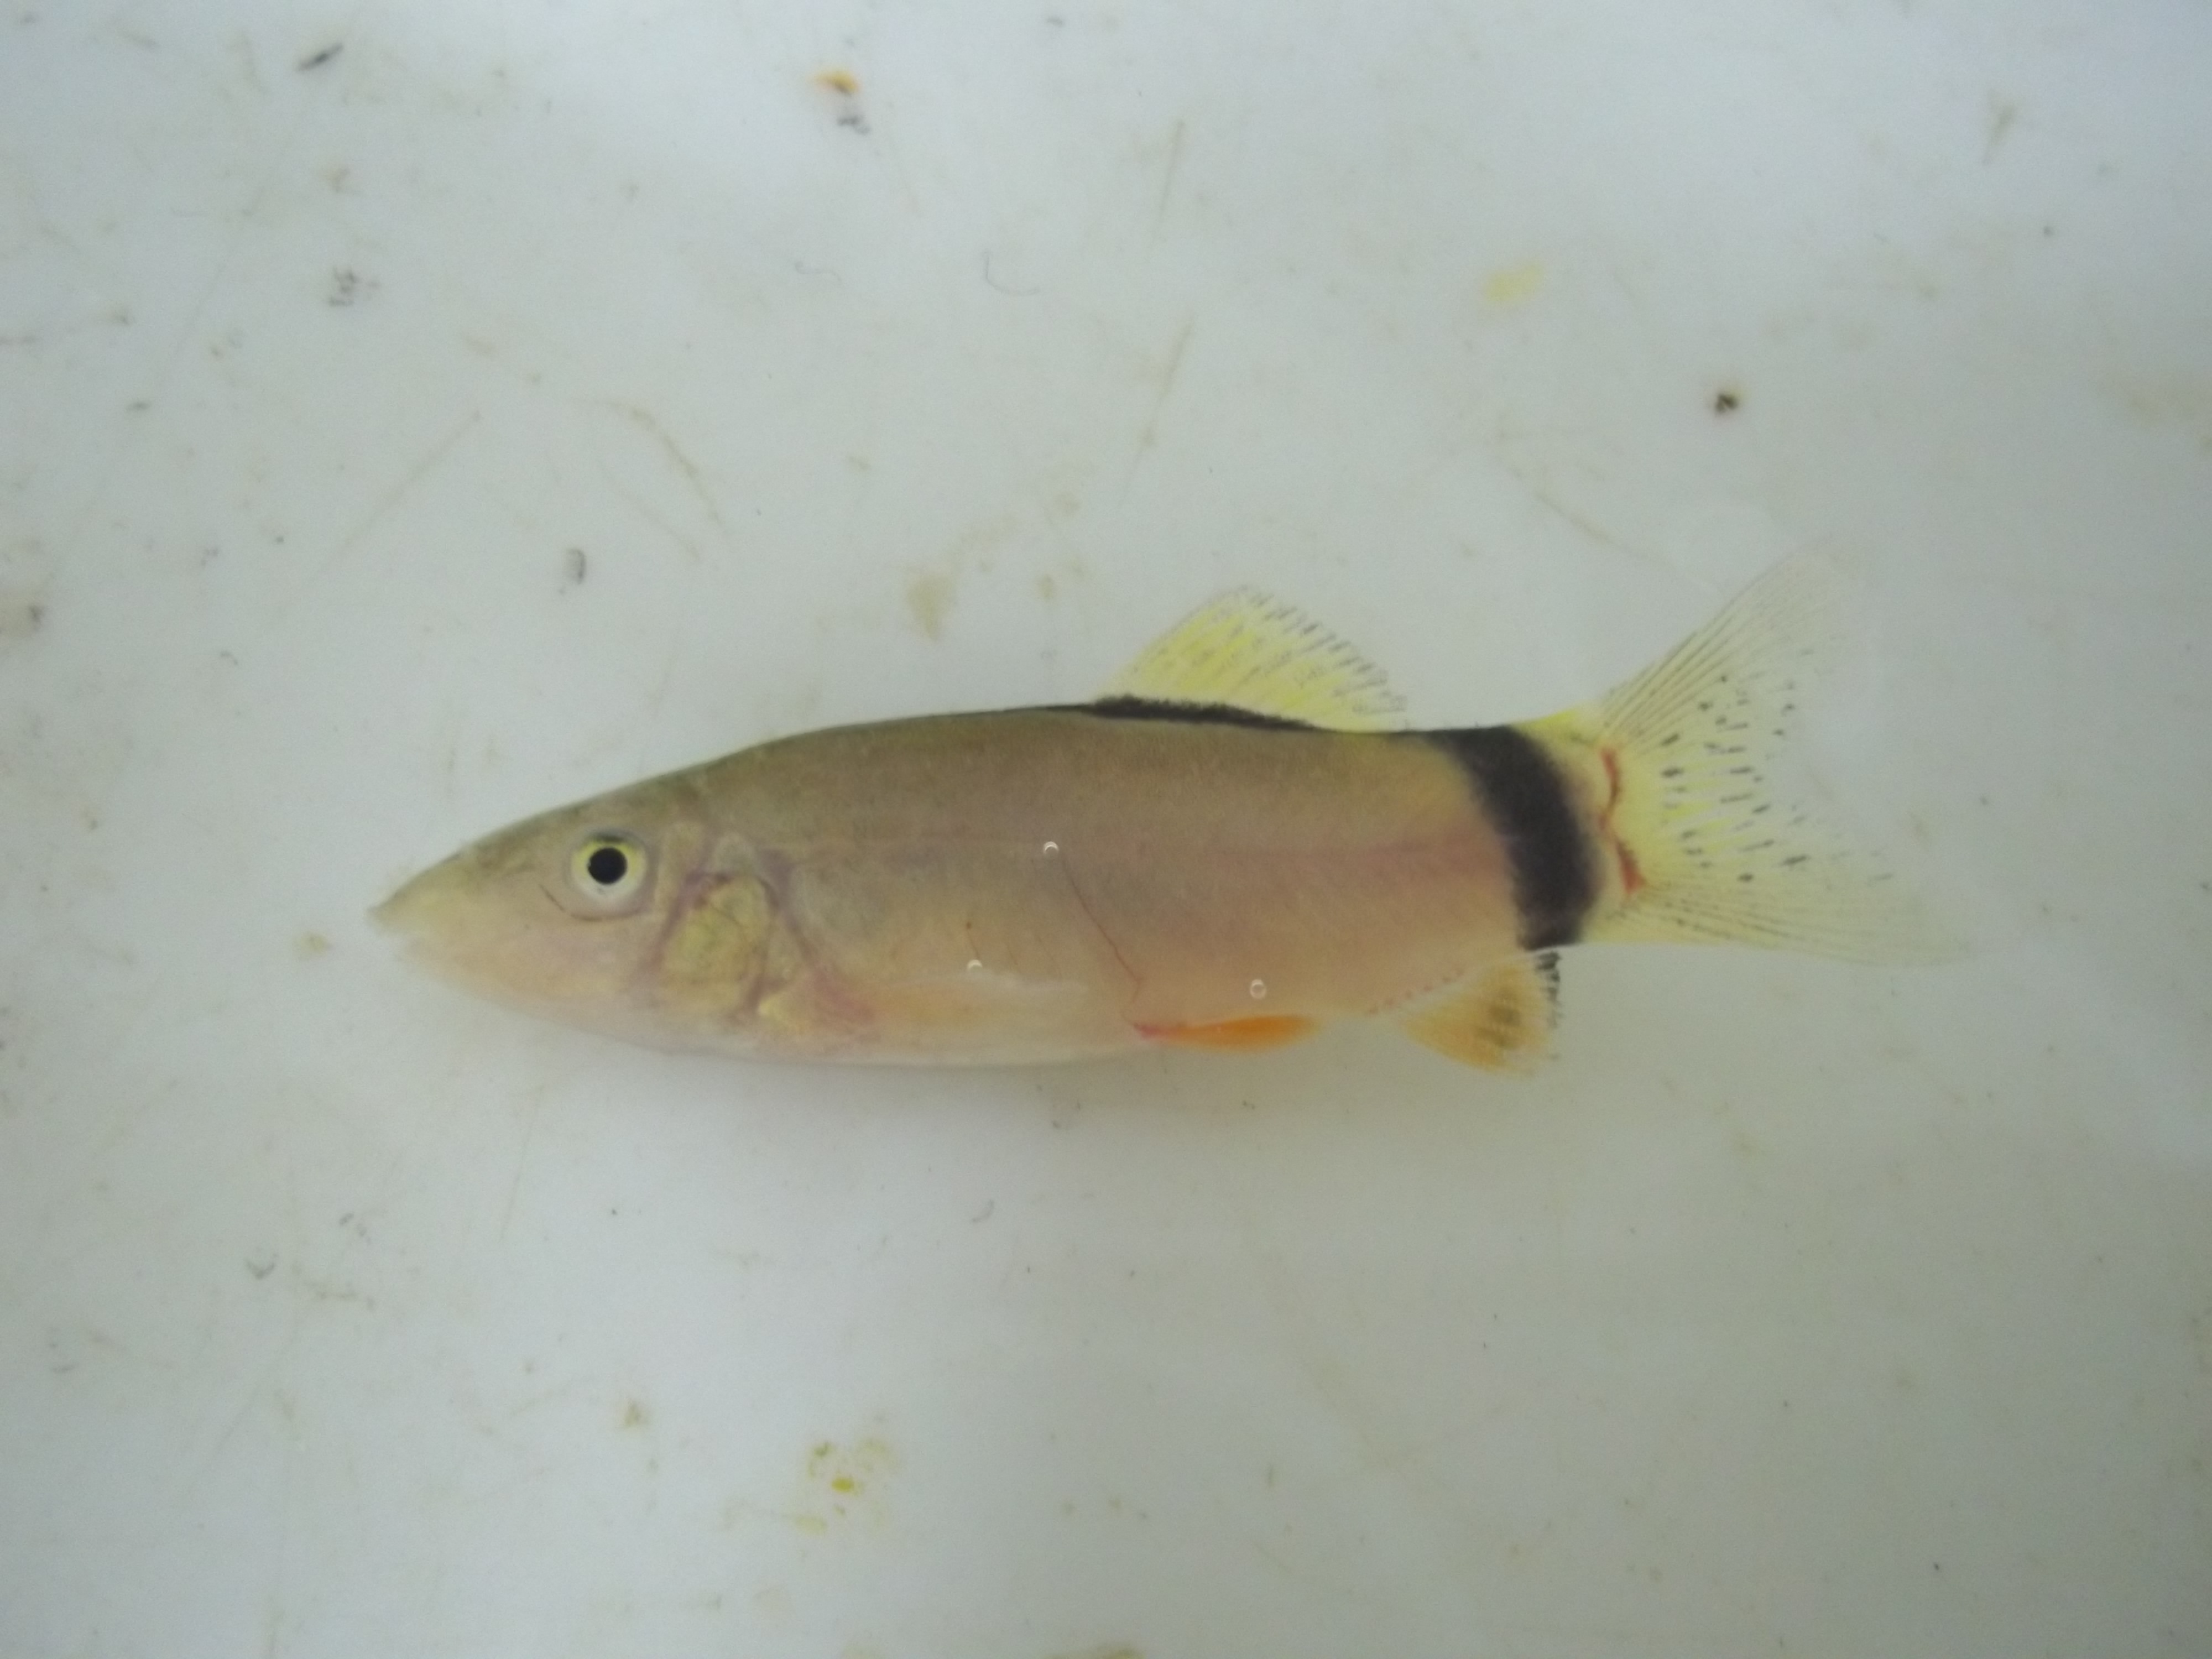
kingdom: Animalia
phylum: Chordata
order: Cypriniformes
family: Cobitidae
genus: Yasuhikotakia
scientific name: Yasuhikotakia morleti
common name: Hora's loach
